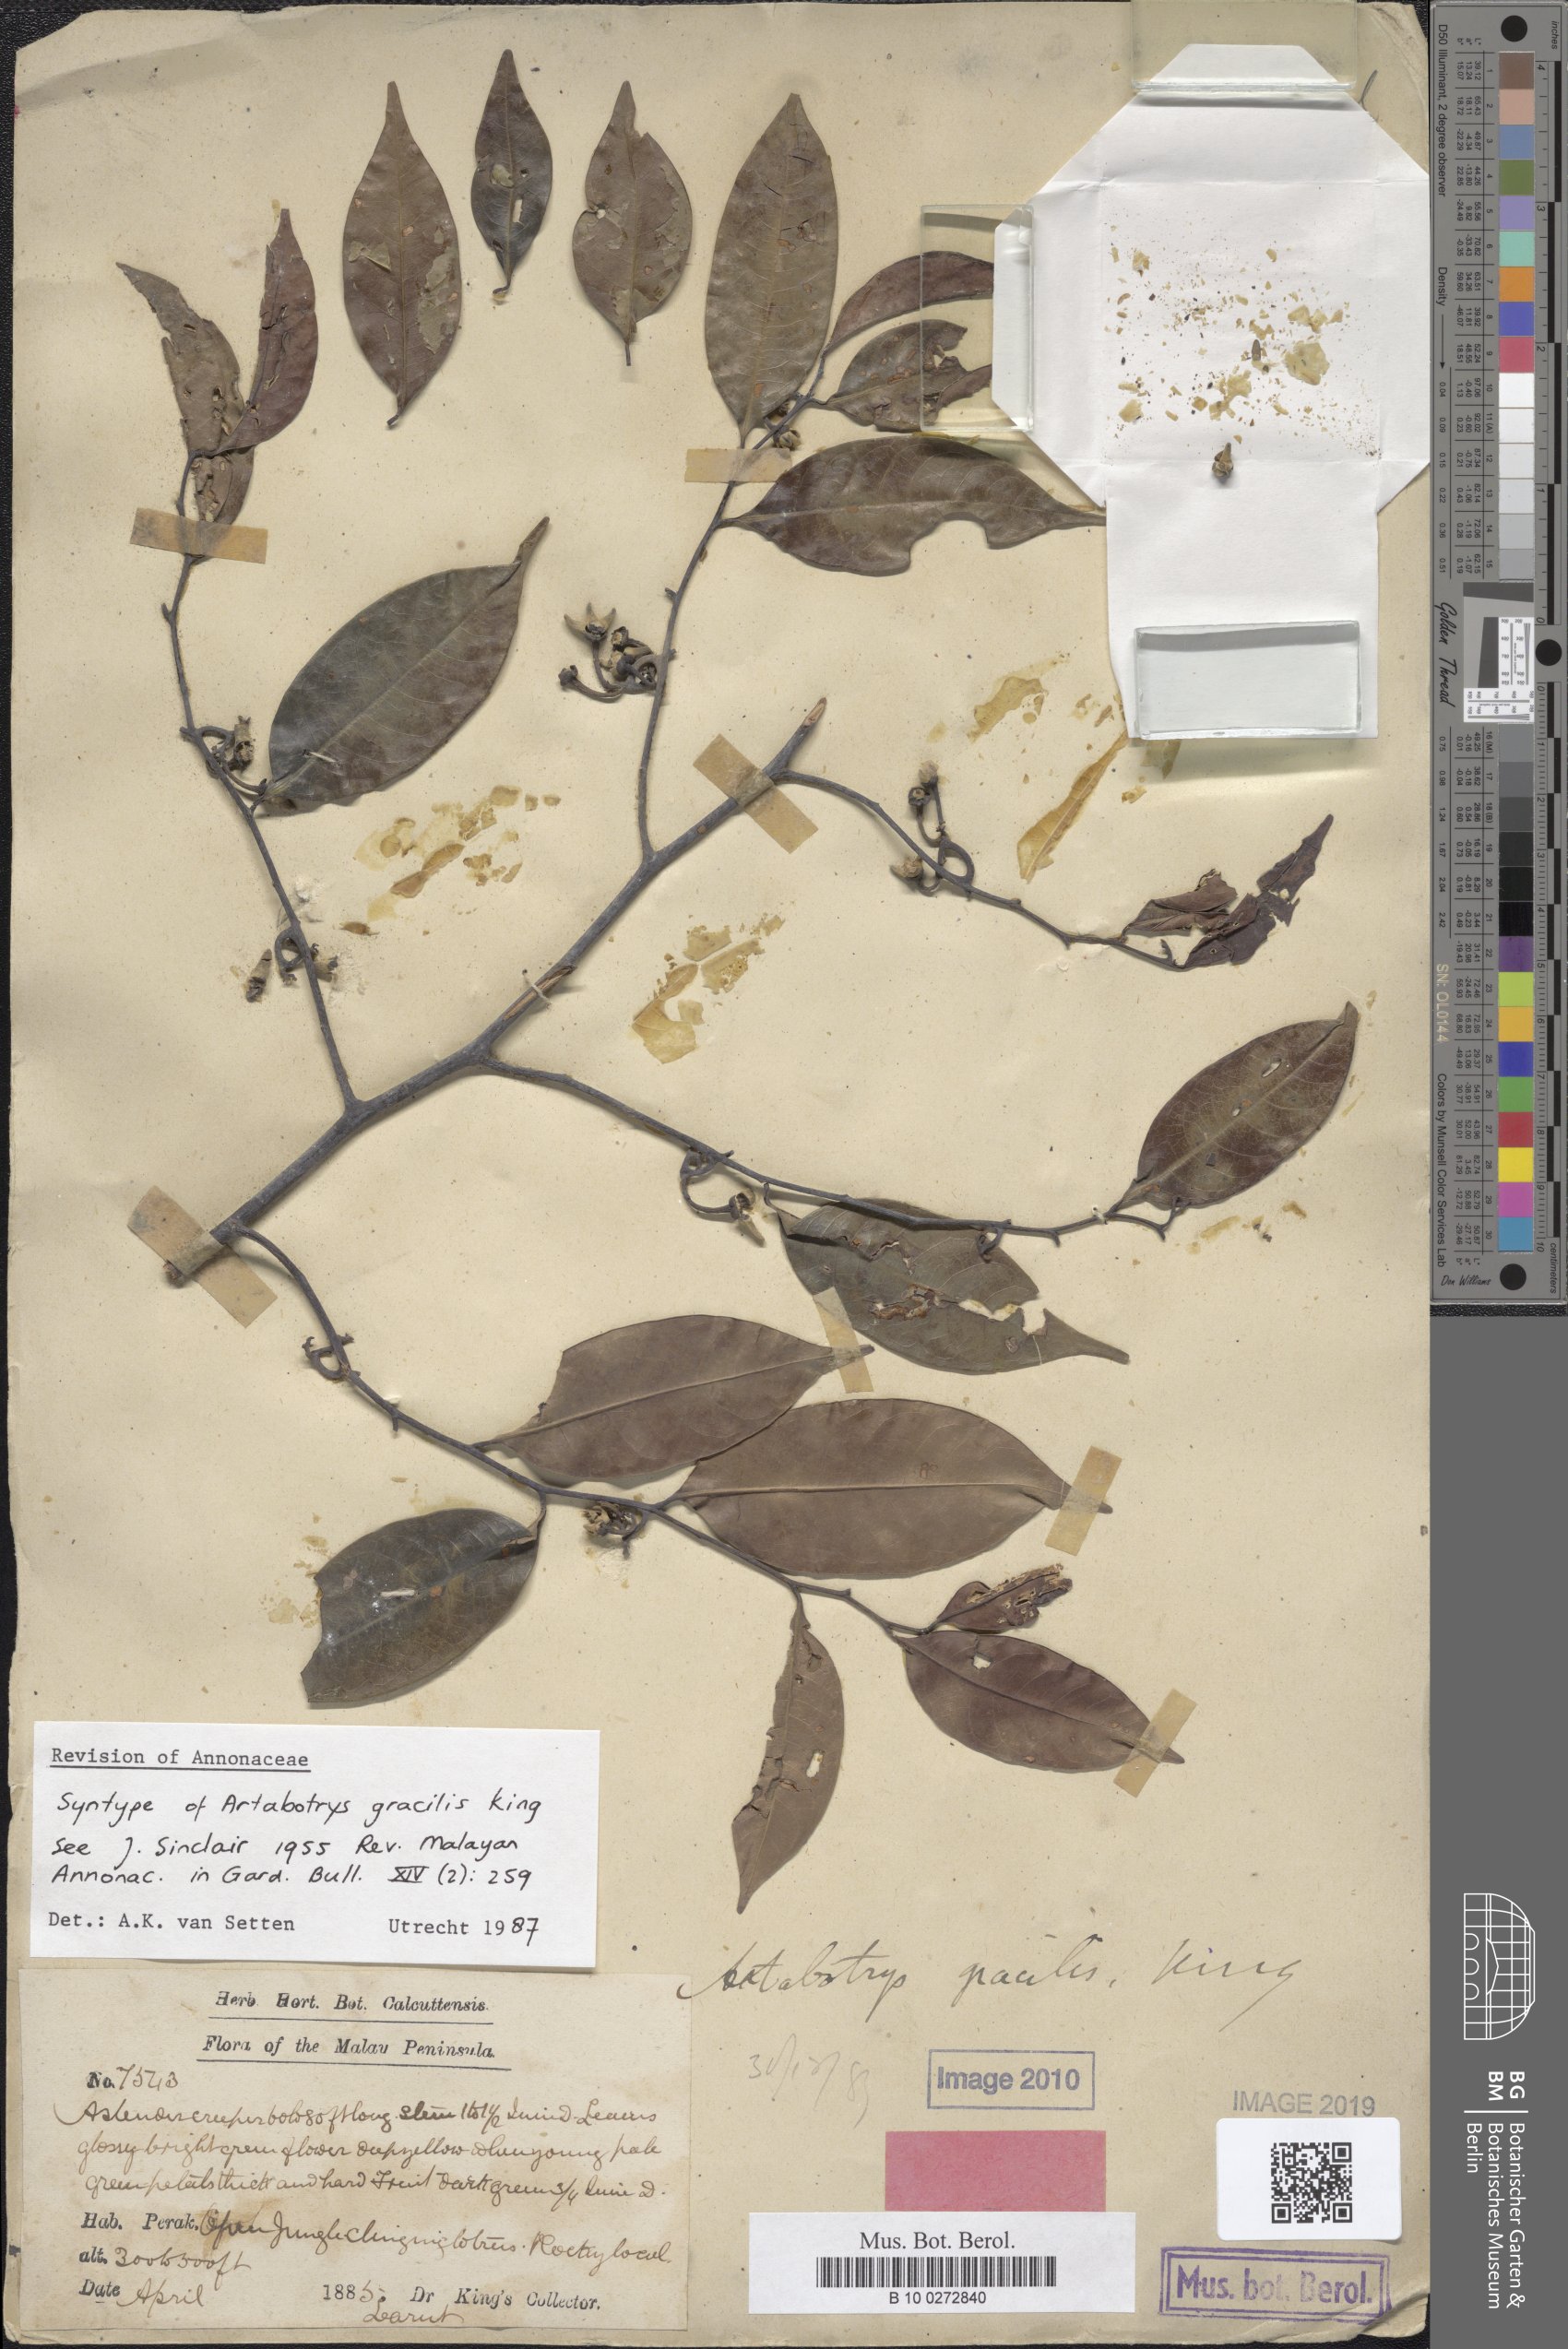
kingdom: Plantae
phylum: Tracheophyta
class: Magnoliopsida
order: Magnoliales
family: Annonaceae
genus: Artabotrys
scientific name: Artabotrys gracilis
